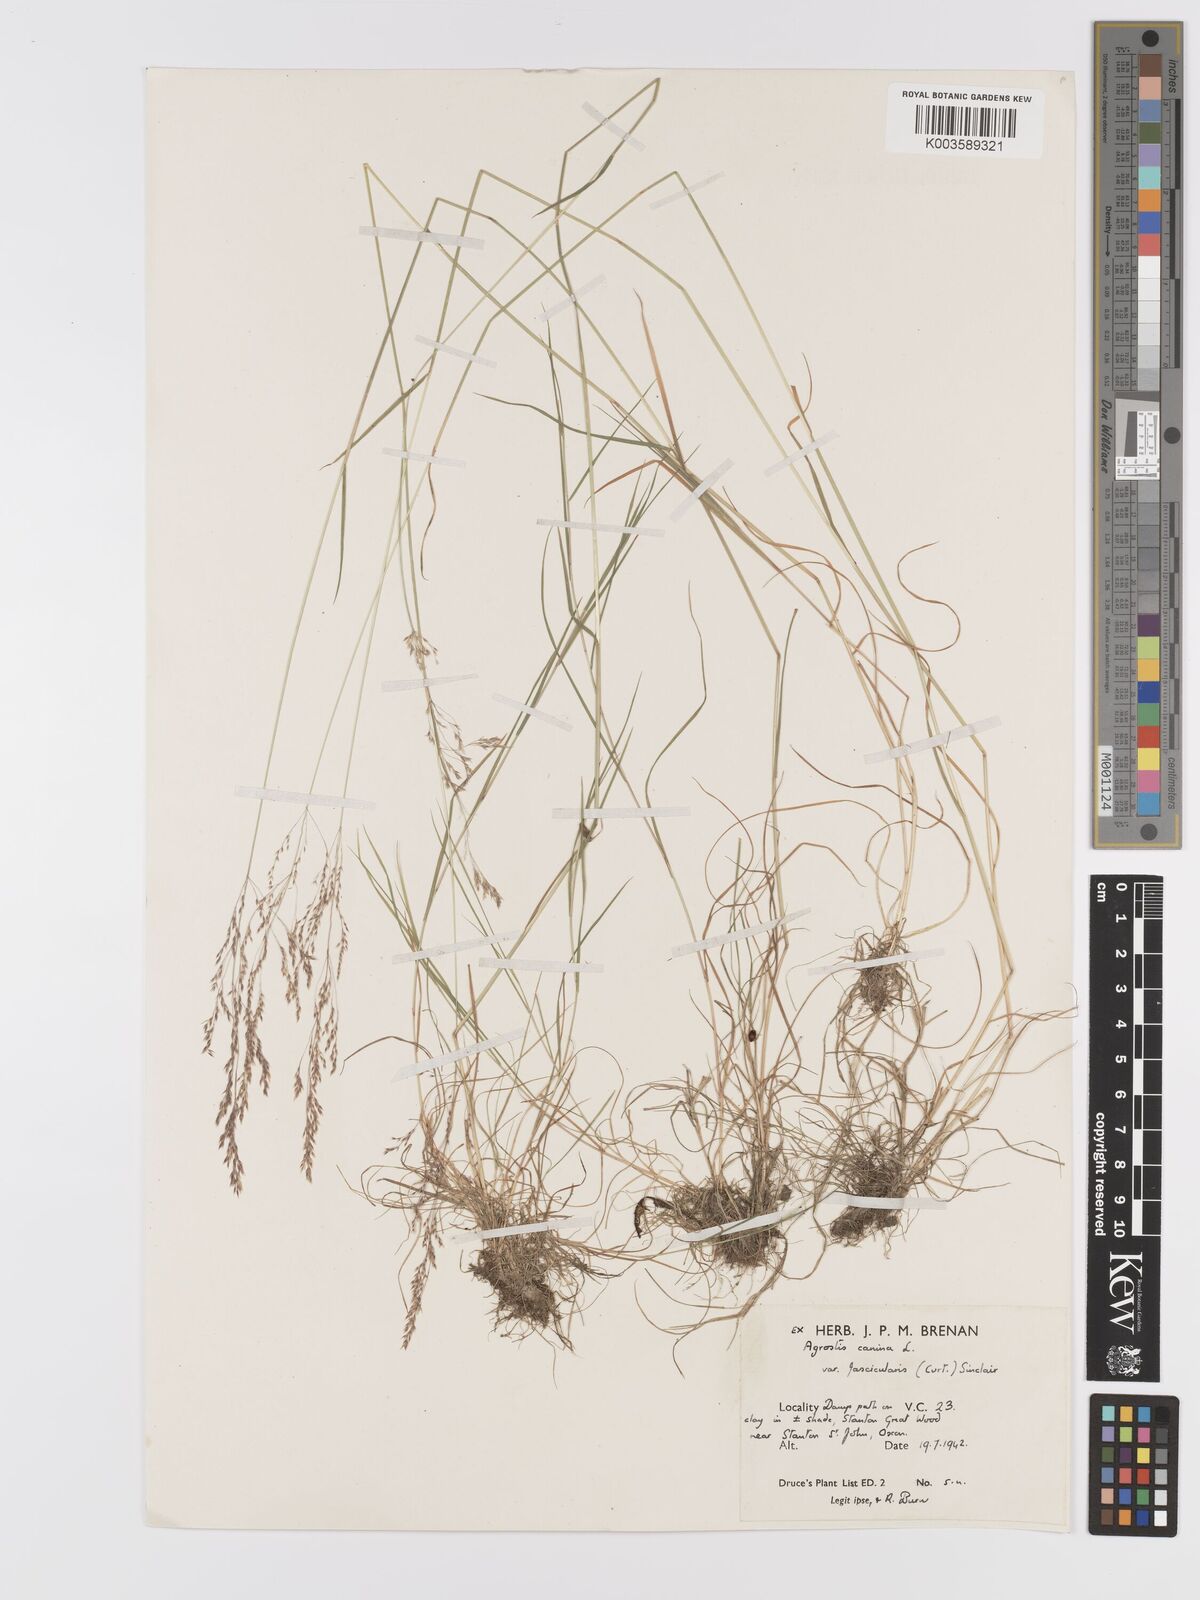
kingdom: Plantae
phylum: Tracheophyta
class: Liliopsida
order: Poales
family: Poaceae
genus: Agrostis
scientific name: Agrostis canina
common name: Velvet bent
